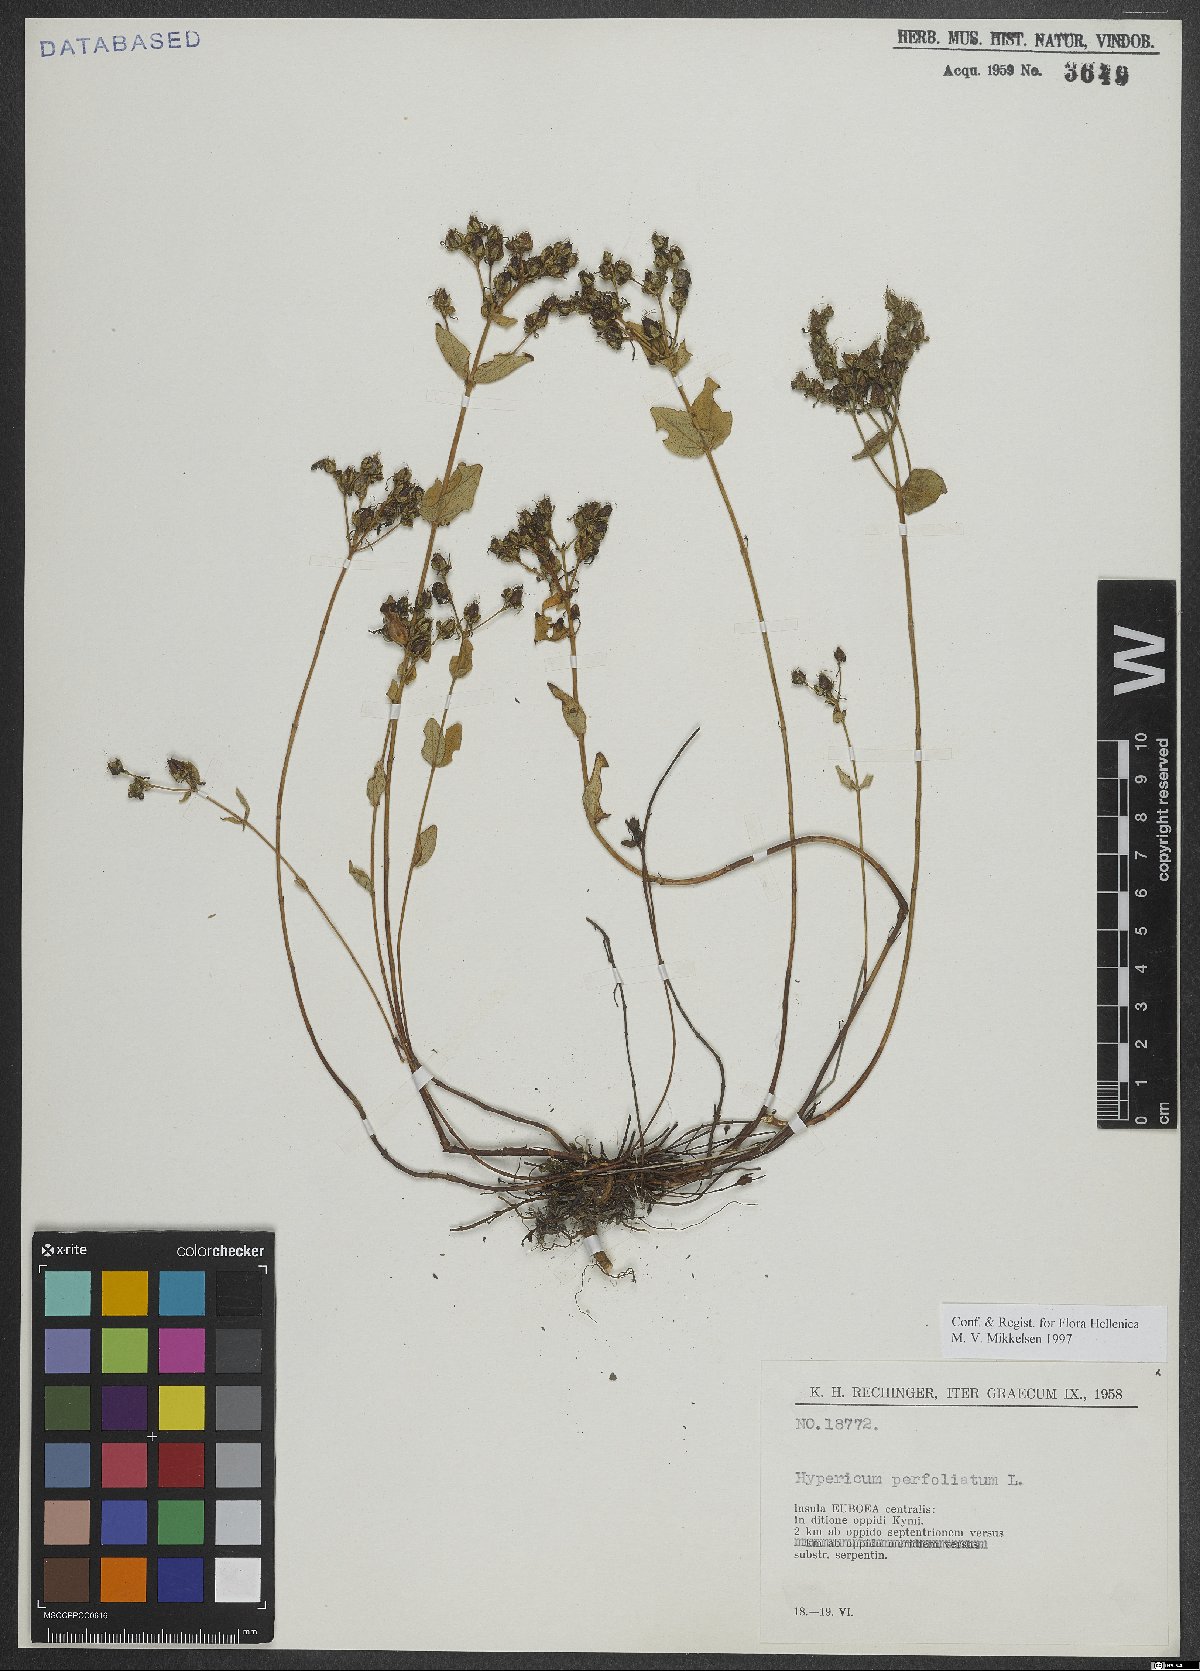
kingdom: Plantae
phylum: Tracheophyta
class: Magnoliopsida
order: Malpighiales
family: Hypericaceae
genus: Hypericum
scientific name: Hypericum perfoliatum
